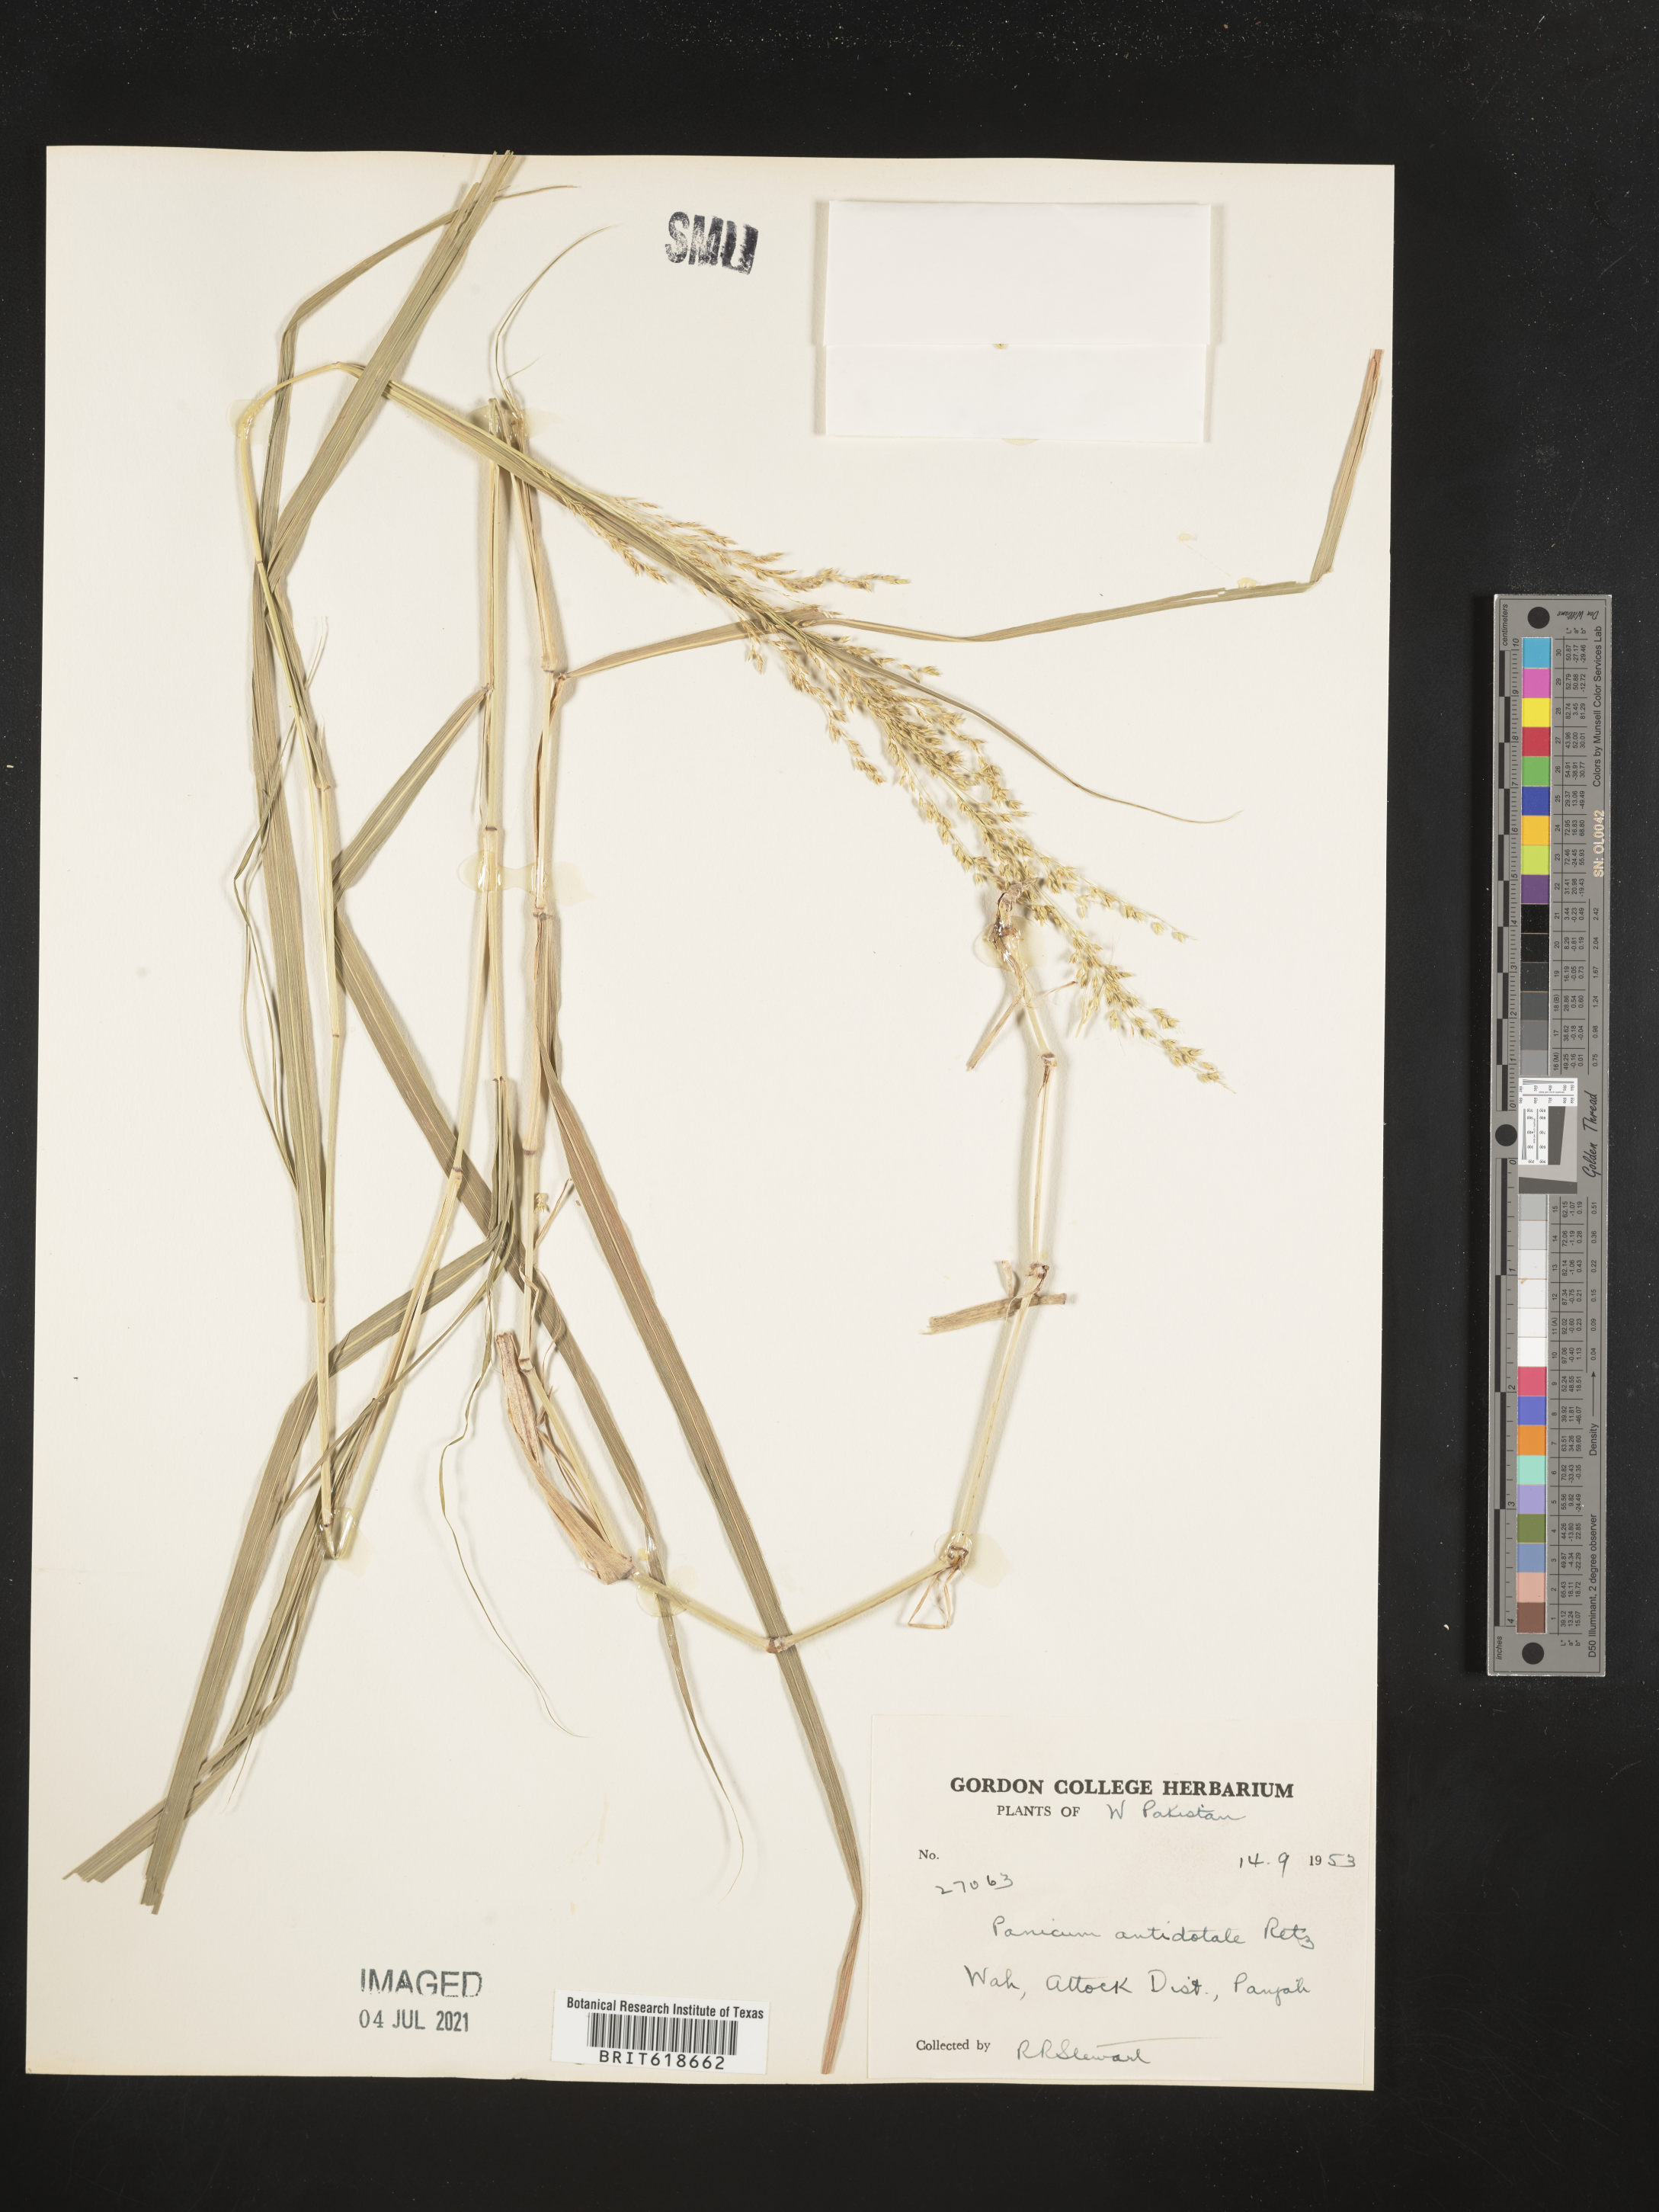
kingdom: Plantae
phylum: Tracheophyta
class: Liliopsida
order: Poales
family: Poaceae
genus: Panicum
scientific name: Panicum antidotale
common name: Blue panicum
